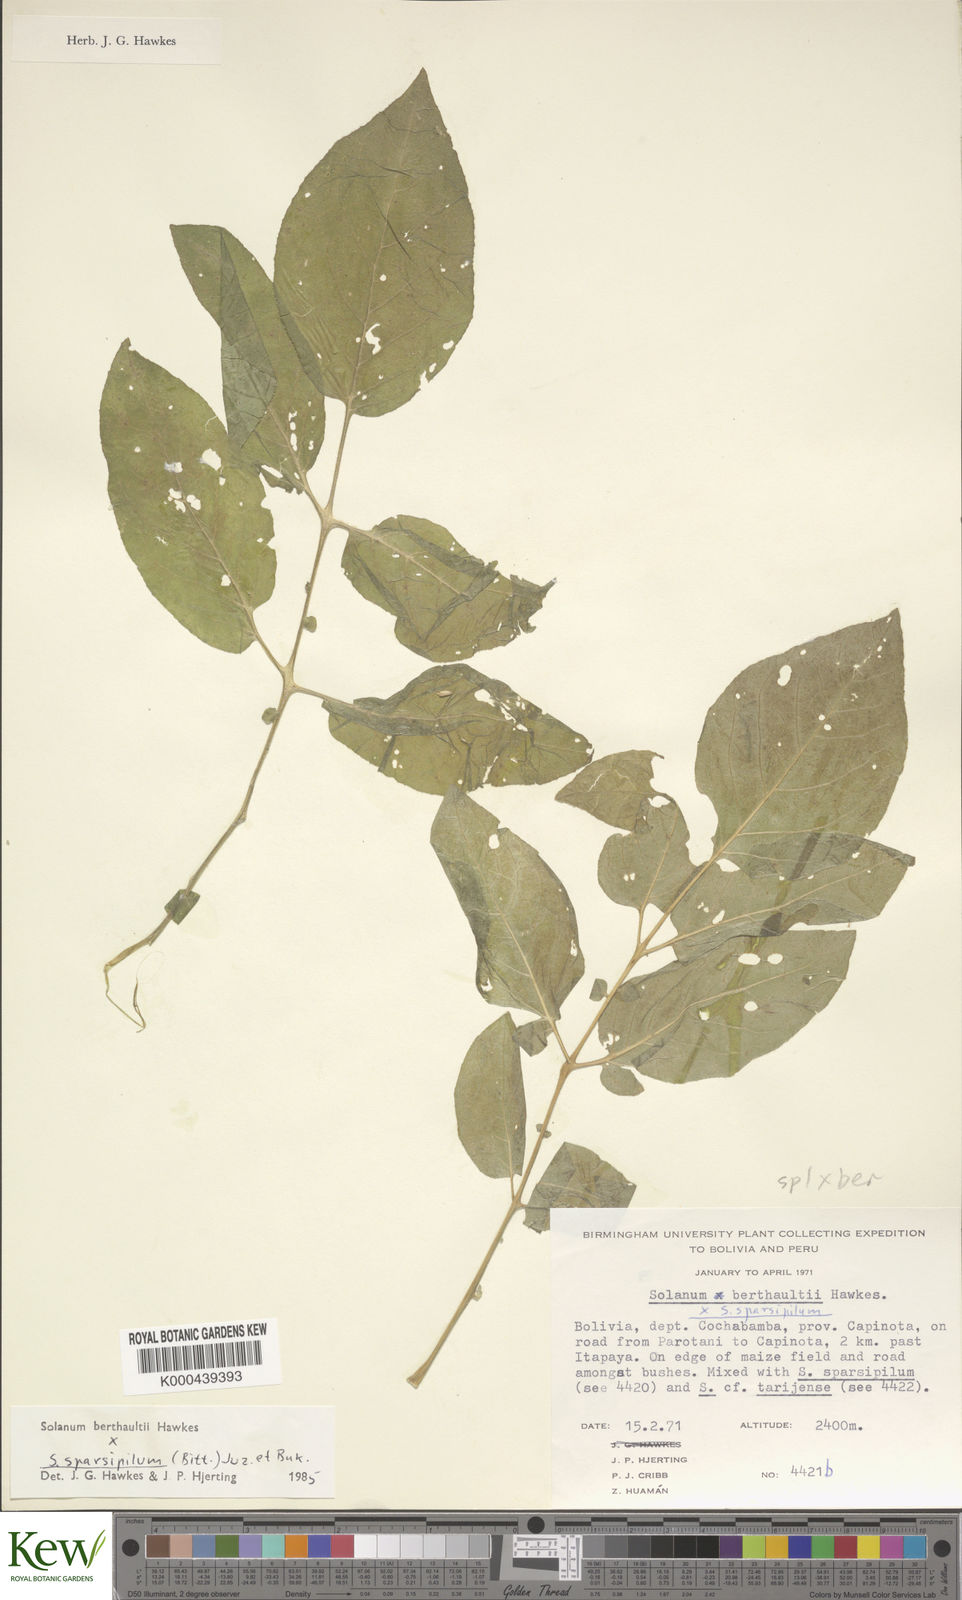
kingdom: Plantae
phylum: Tracheophyta
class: Magnoliopsida
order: Solanales
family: Solanaceae
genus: Solanum
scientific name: Solanum berthaultii
